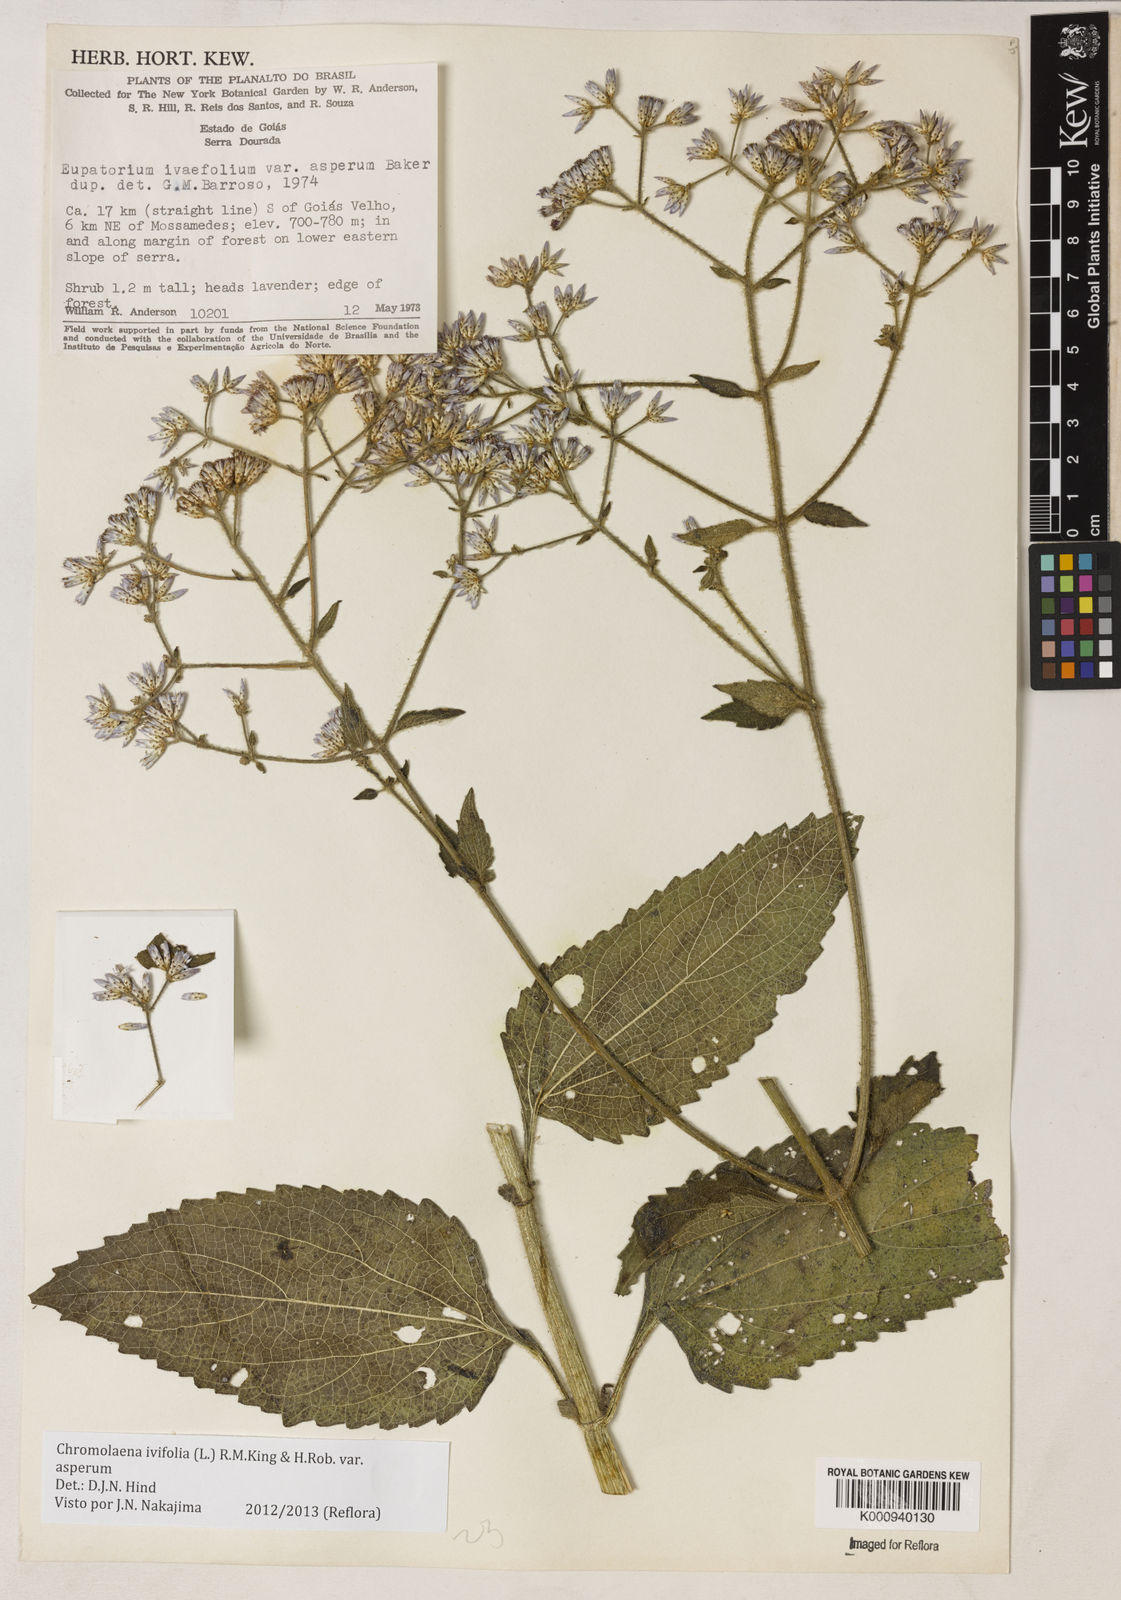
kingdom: Plantae
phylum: Tracheophyta
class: Magnoliopsida
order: Asterales
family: Asteraceae
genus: Chromolaena
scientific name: Chromolaena ivifolia
